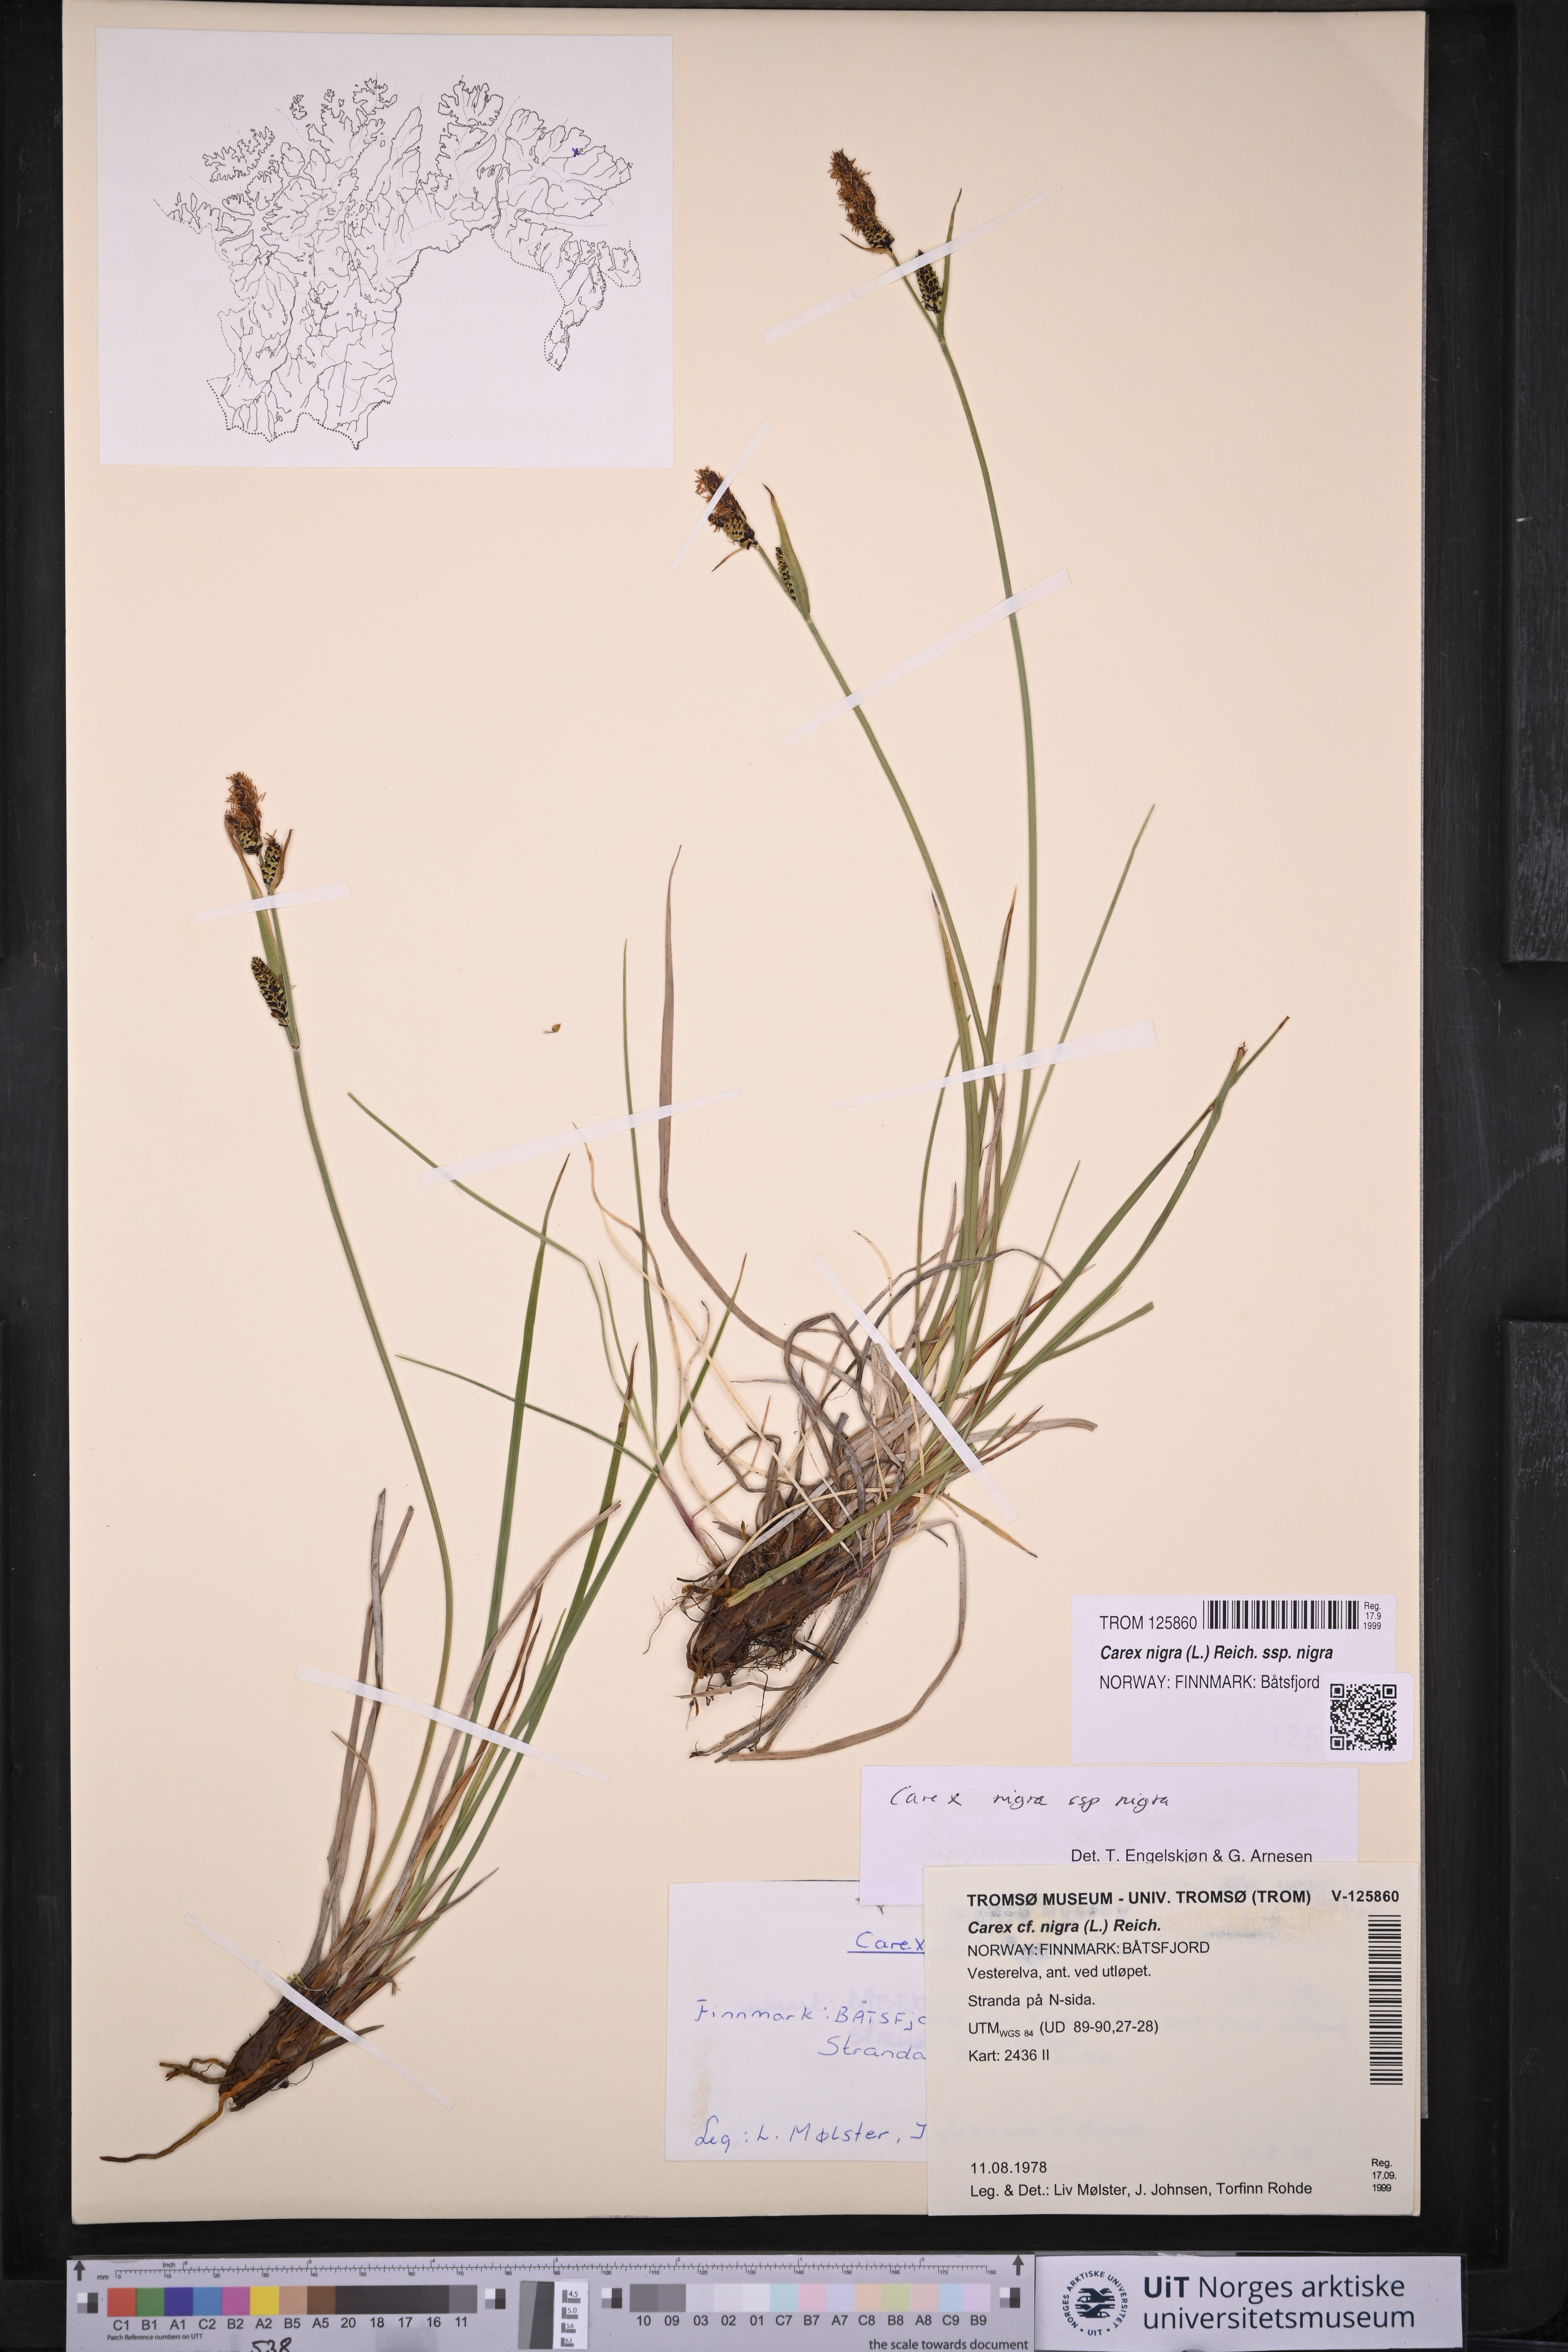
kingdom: Plantae
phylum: Tracheophyta
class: Liliopsida
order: Poales
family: Cyperaceae
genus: Carex
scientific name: Carex nigra
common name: Common sedge
